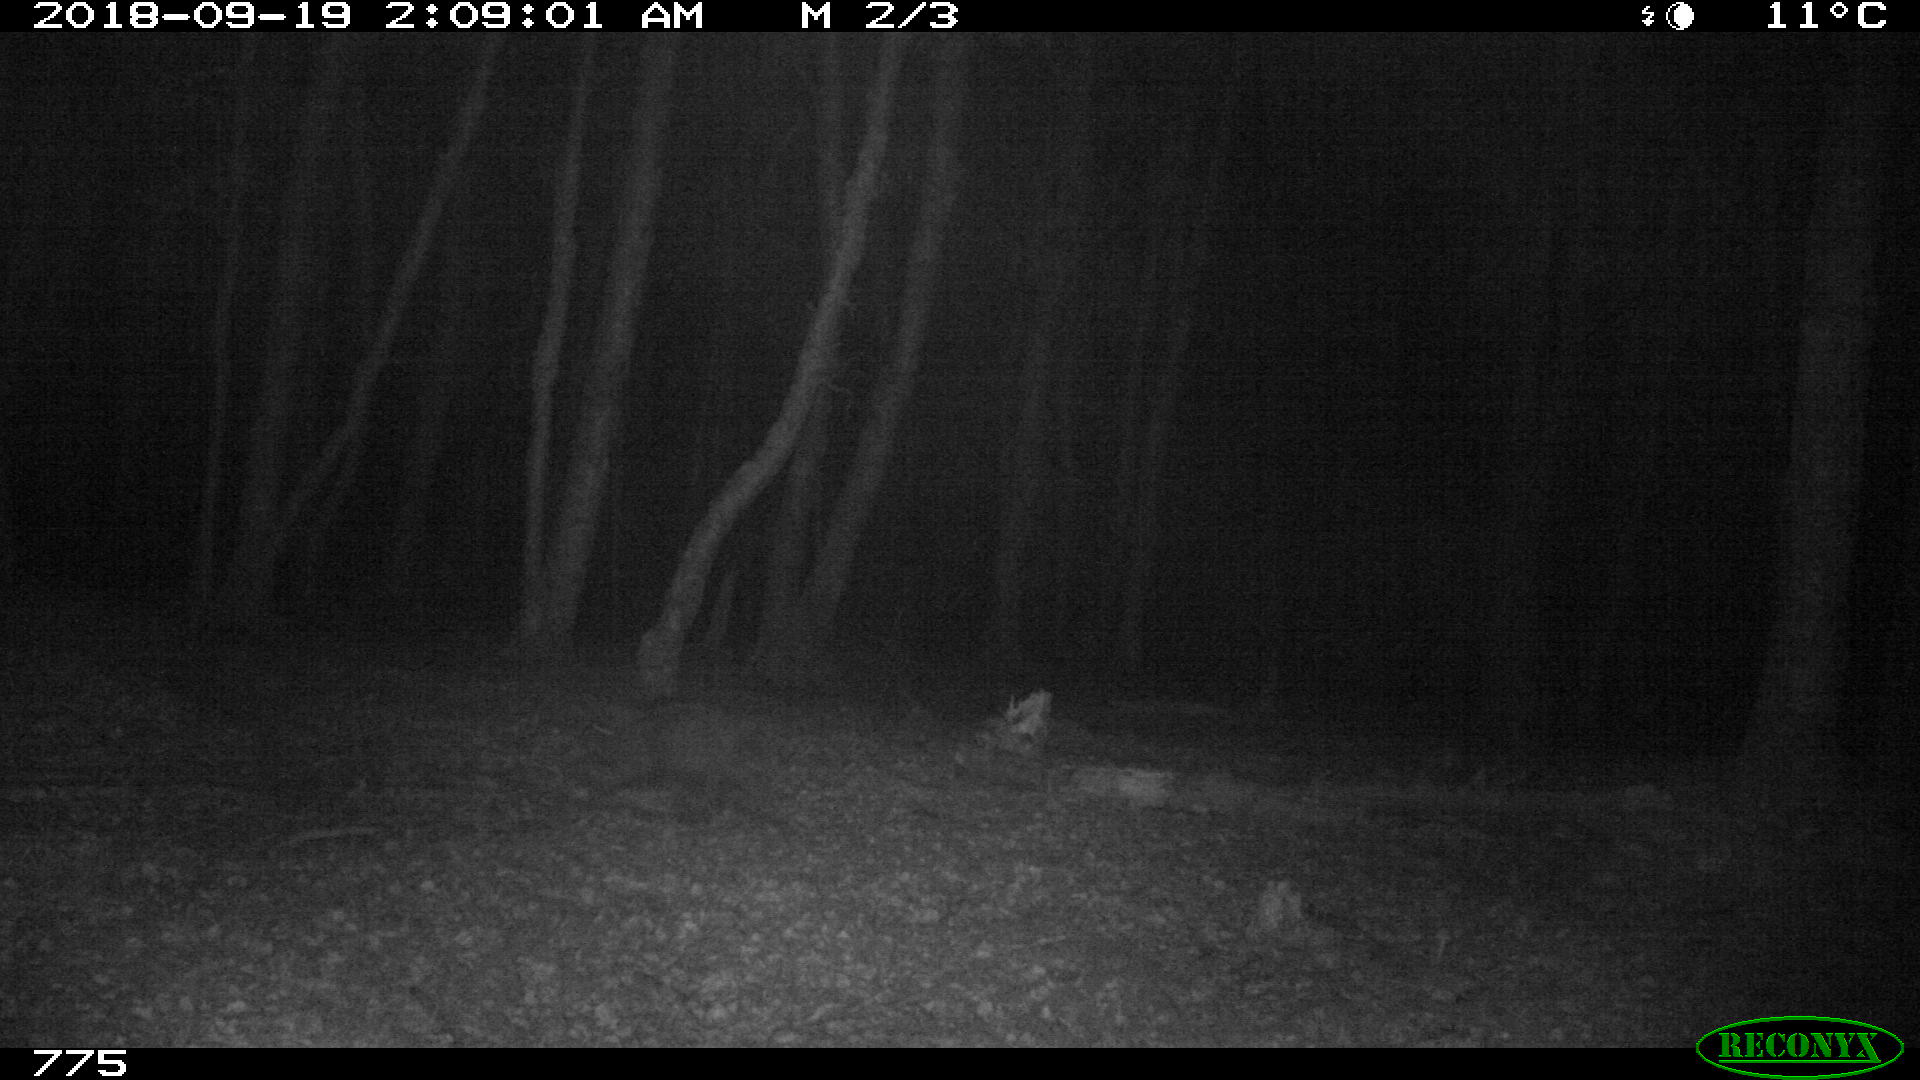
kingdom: Animalia
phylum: Chordata
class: Mammalia
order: Artiodactyla
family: Suidae
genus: Sus
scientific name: Sus scrofa
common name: Wild boar
